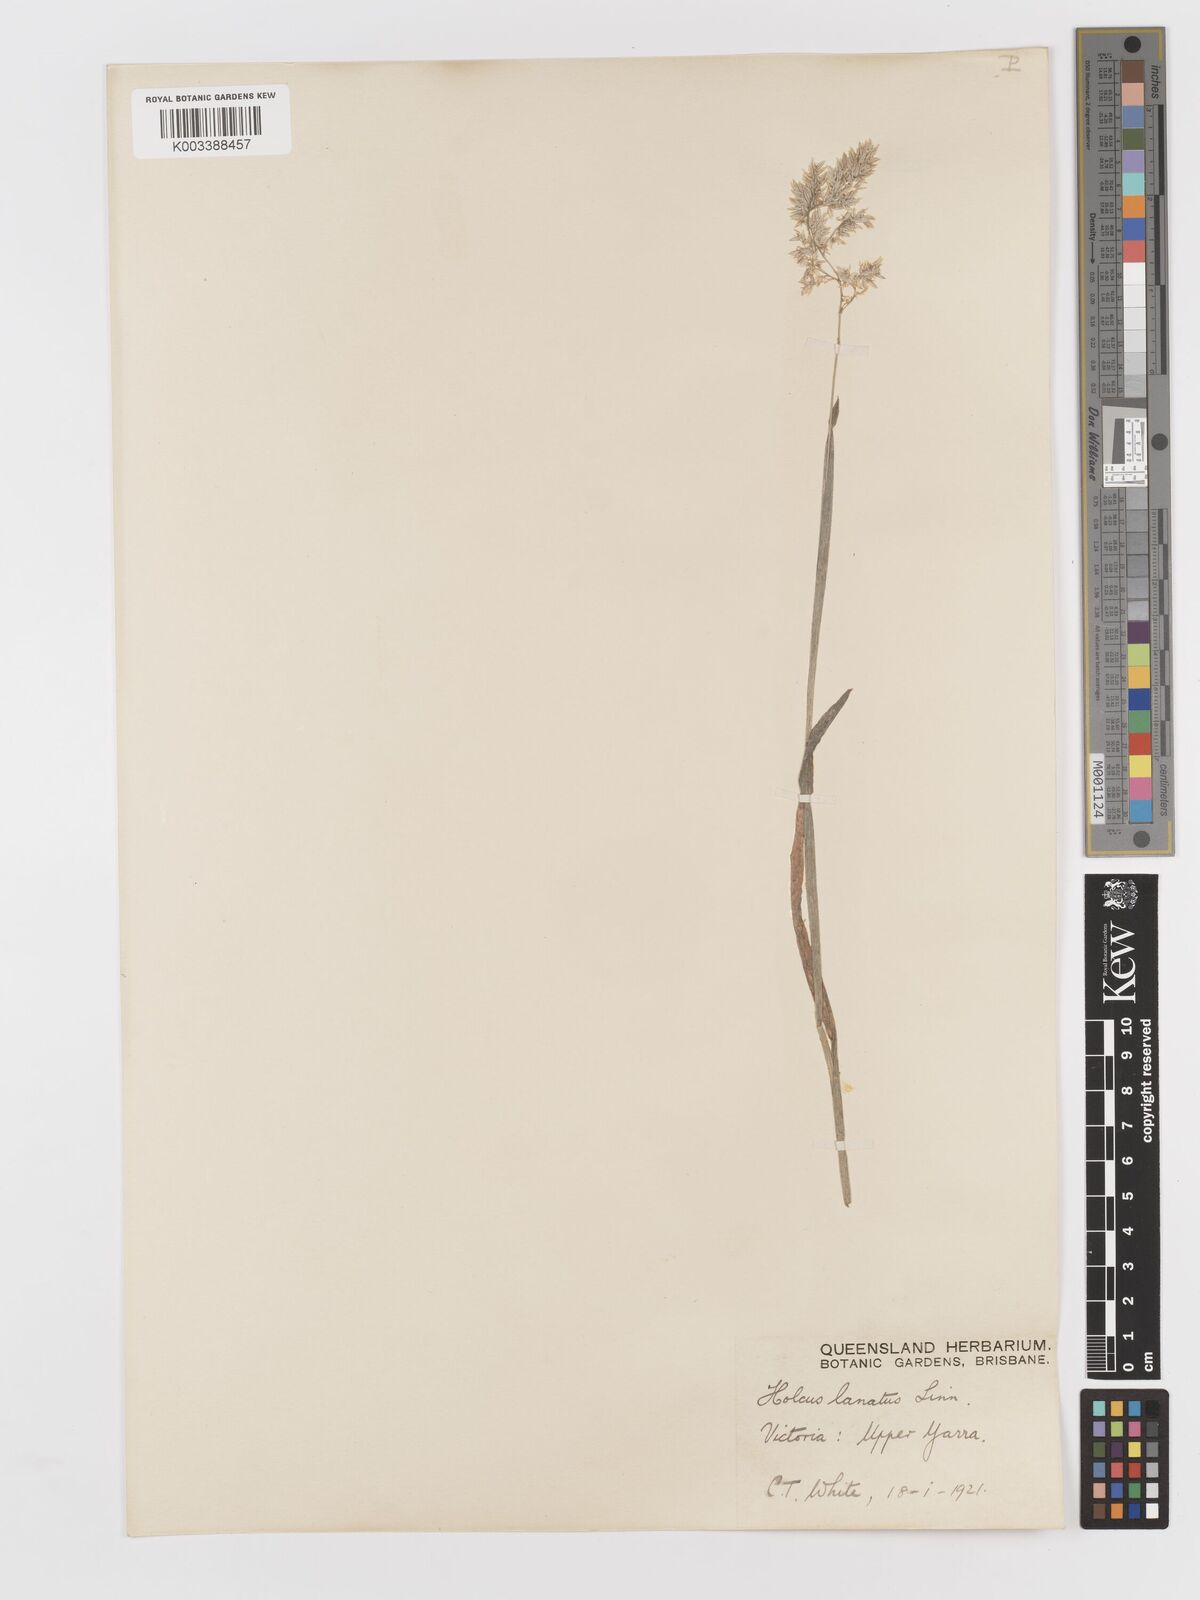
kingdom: Plantae
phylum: Tracheophyta
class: Liliopsida
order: Poales
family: Poaceae
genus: Holcus
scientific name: Holcus lanatus
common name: Yorkshire-fog
